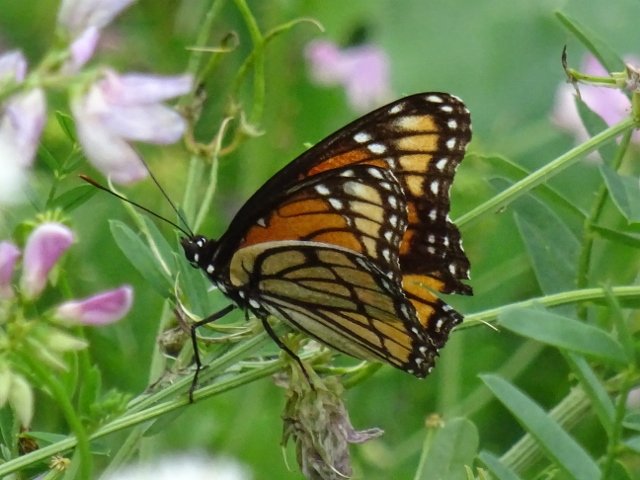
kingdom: Animalia
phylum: Arthropoda
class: Insecta
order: Lepidoptera
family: Nymphalidae
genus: Limenitis
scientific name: Limenitis archippus
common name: Viceroy
